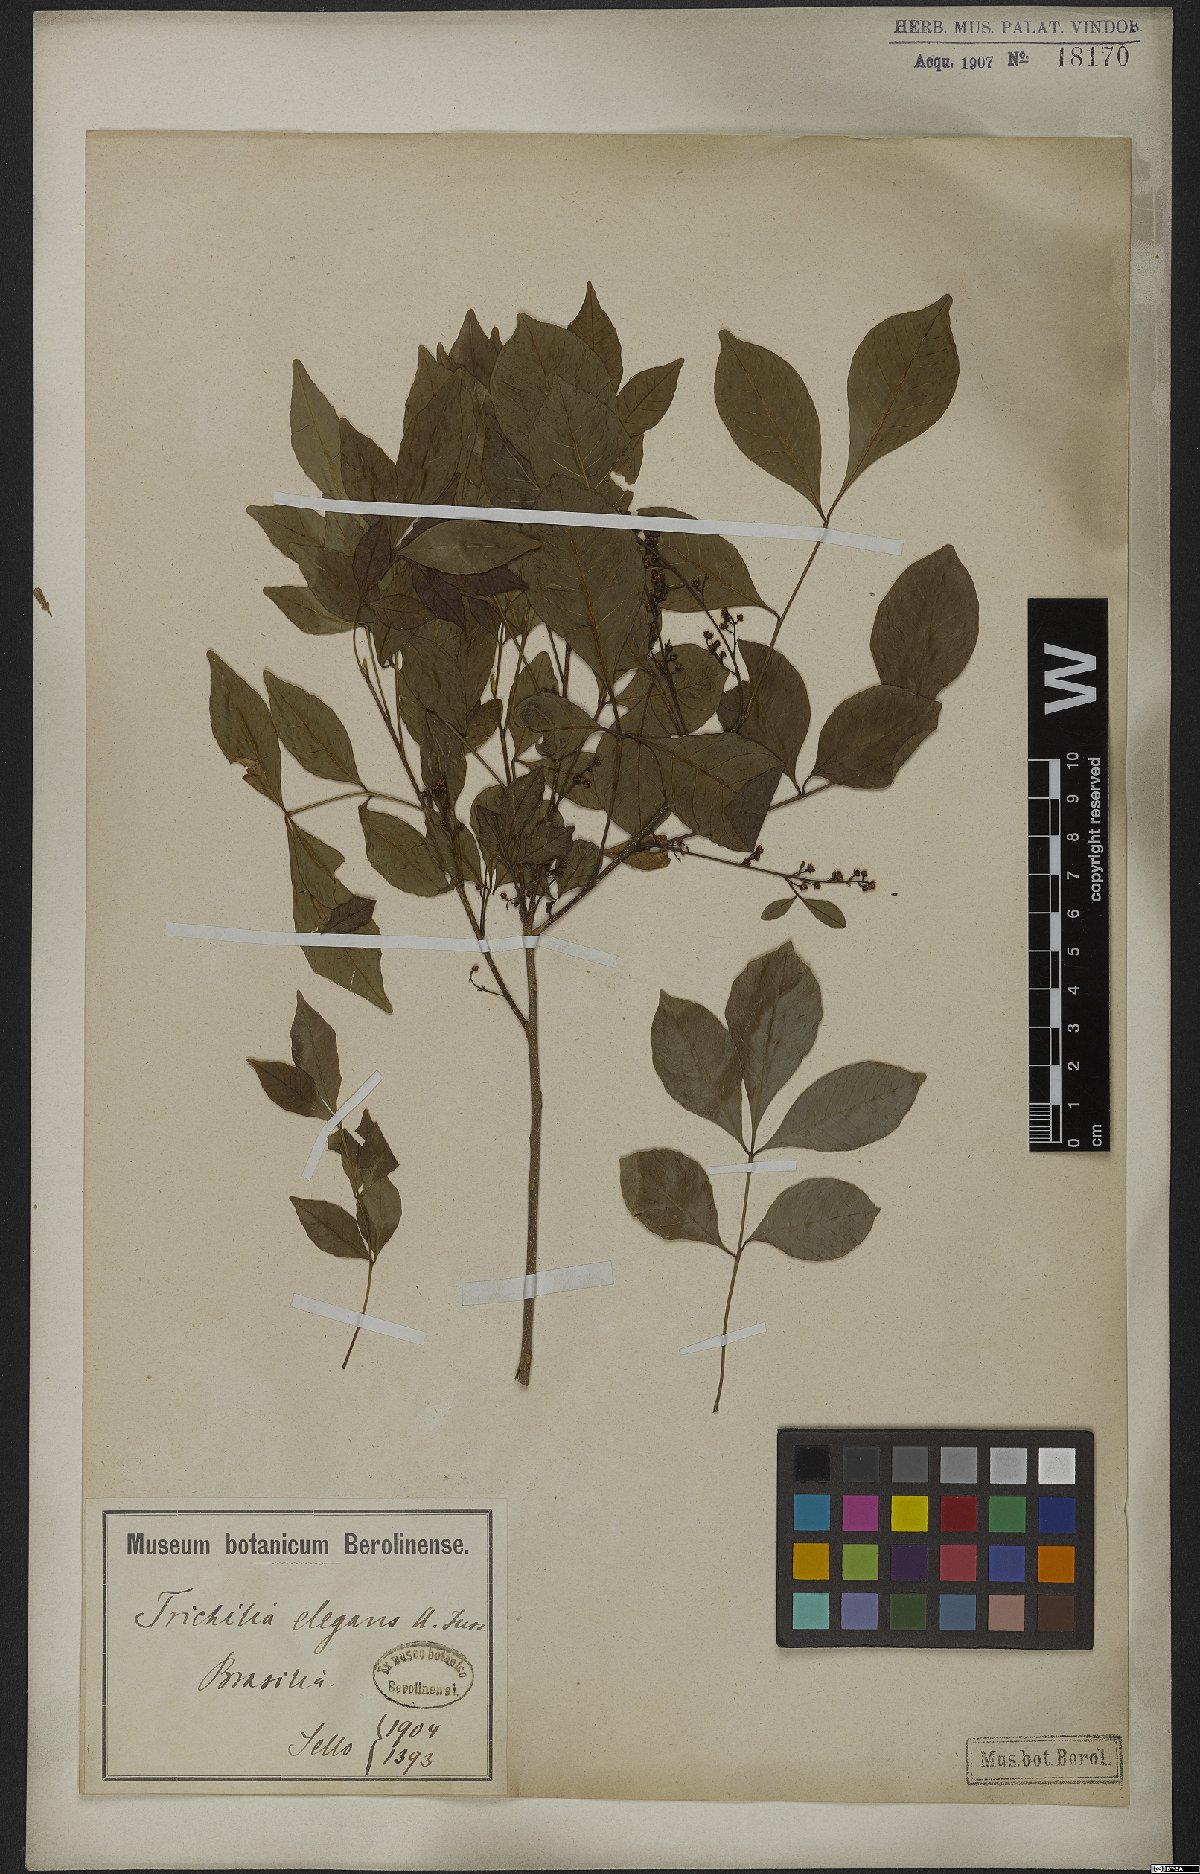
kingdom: Plantae
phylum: Tracheophyta
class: Magnoliopsida
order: Sapindales
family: Meliaceae
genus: Trichilia
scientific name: Trichilia elegans
